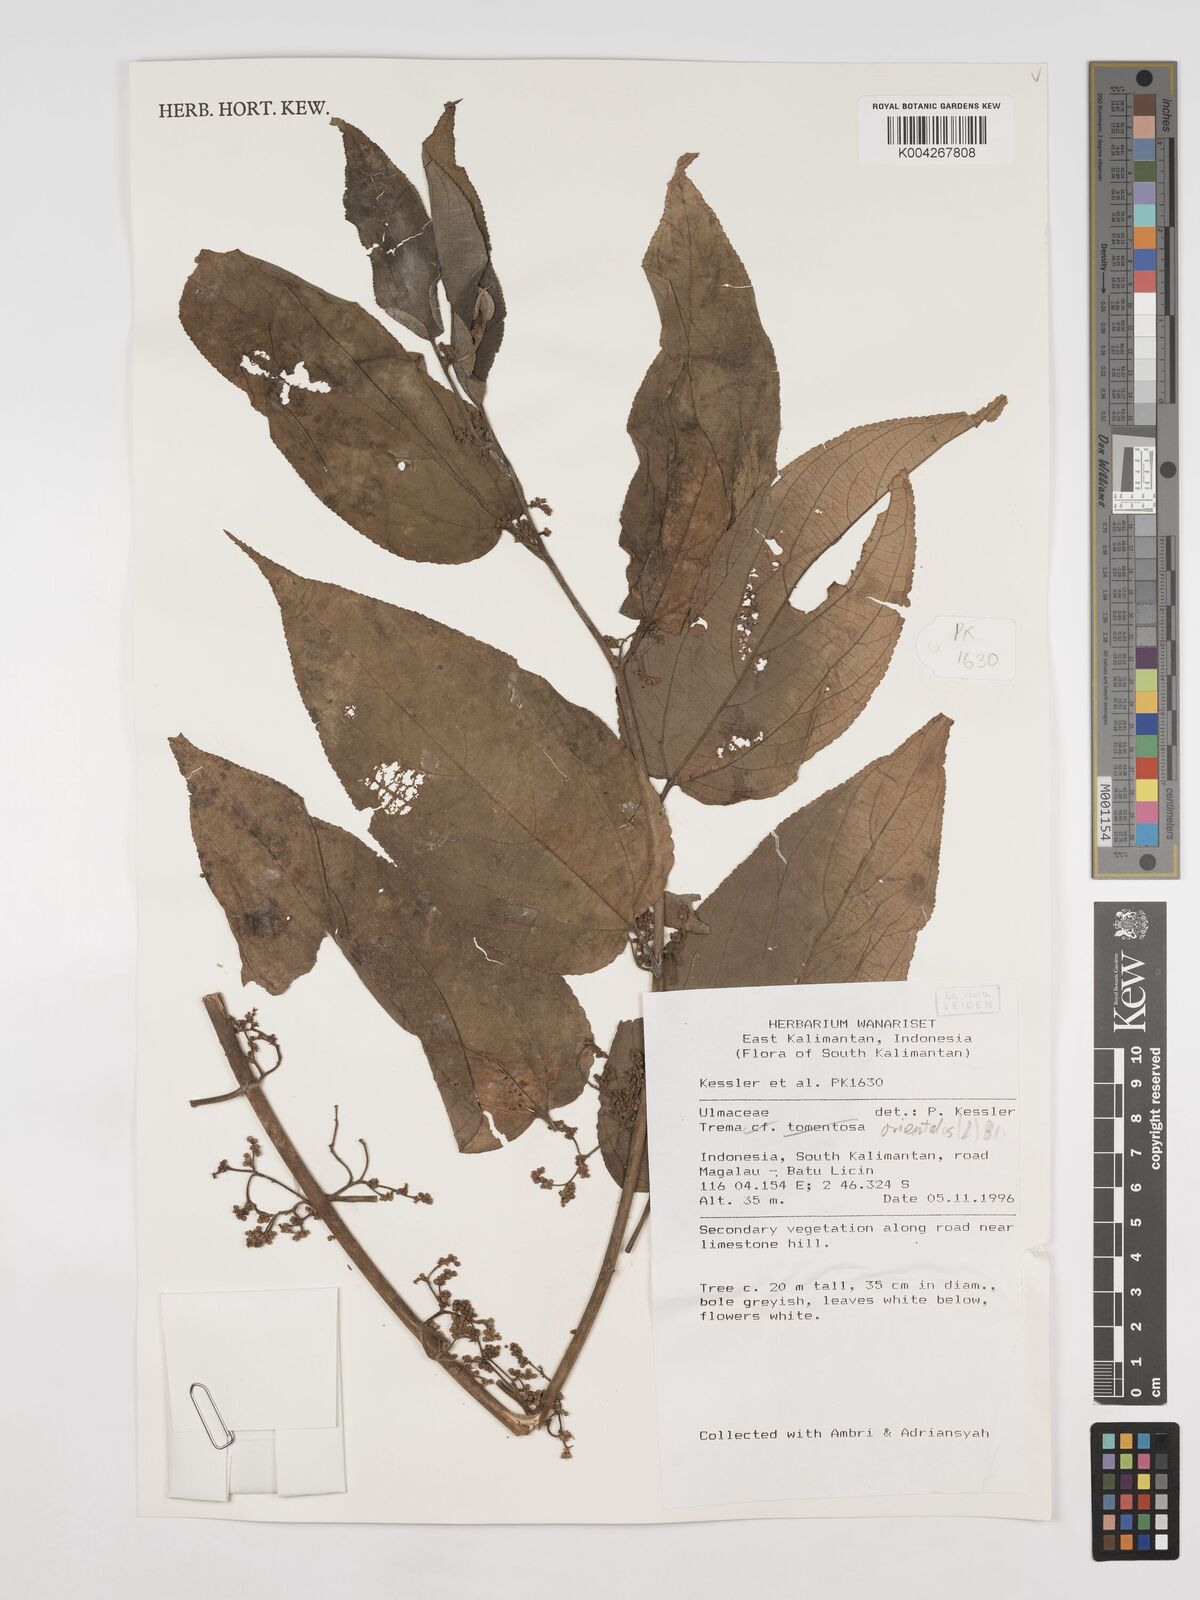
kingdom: Plantae
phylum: Tracheophyta
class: Magnoliopsida
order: Rosales
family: Cannabaceae
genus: Trema
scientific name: Trema orientale
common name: Indian charcoal tree
